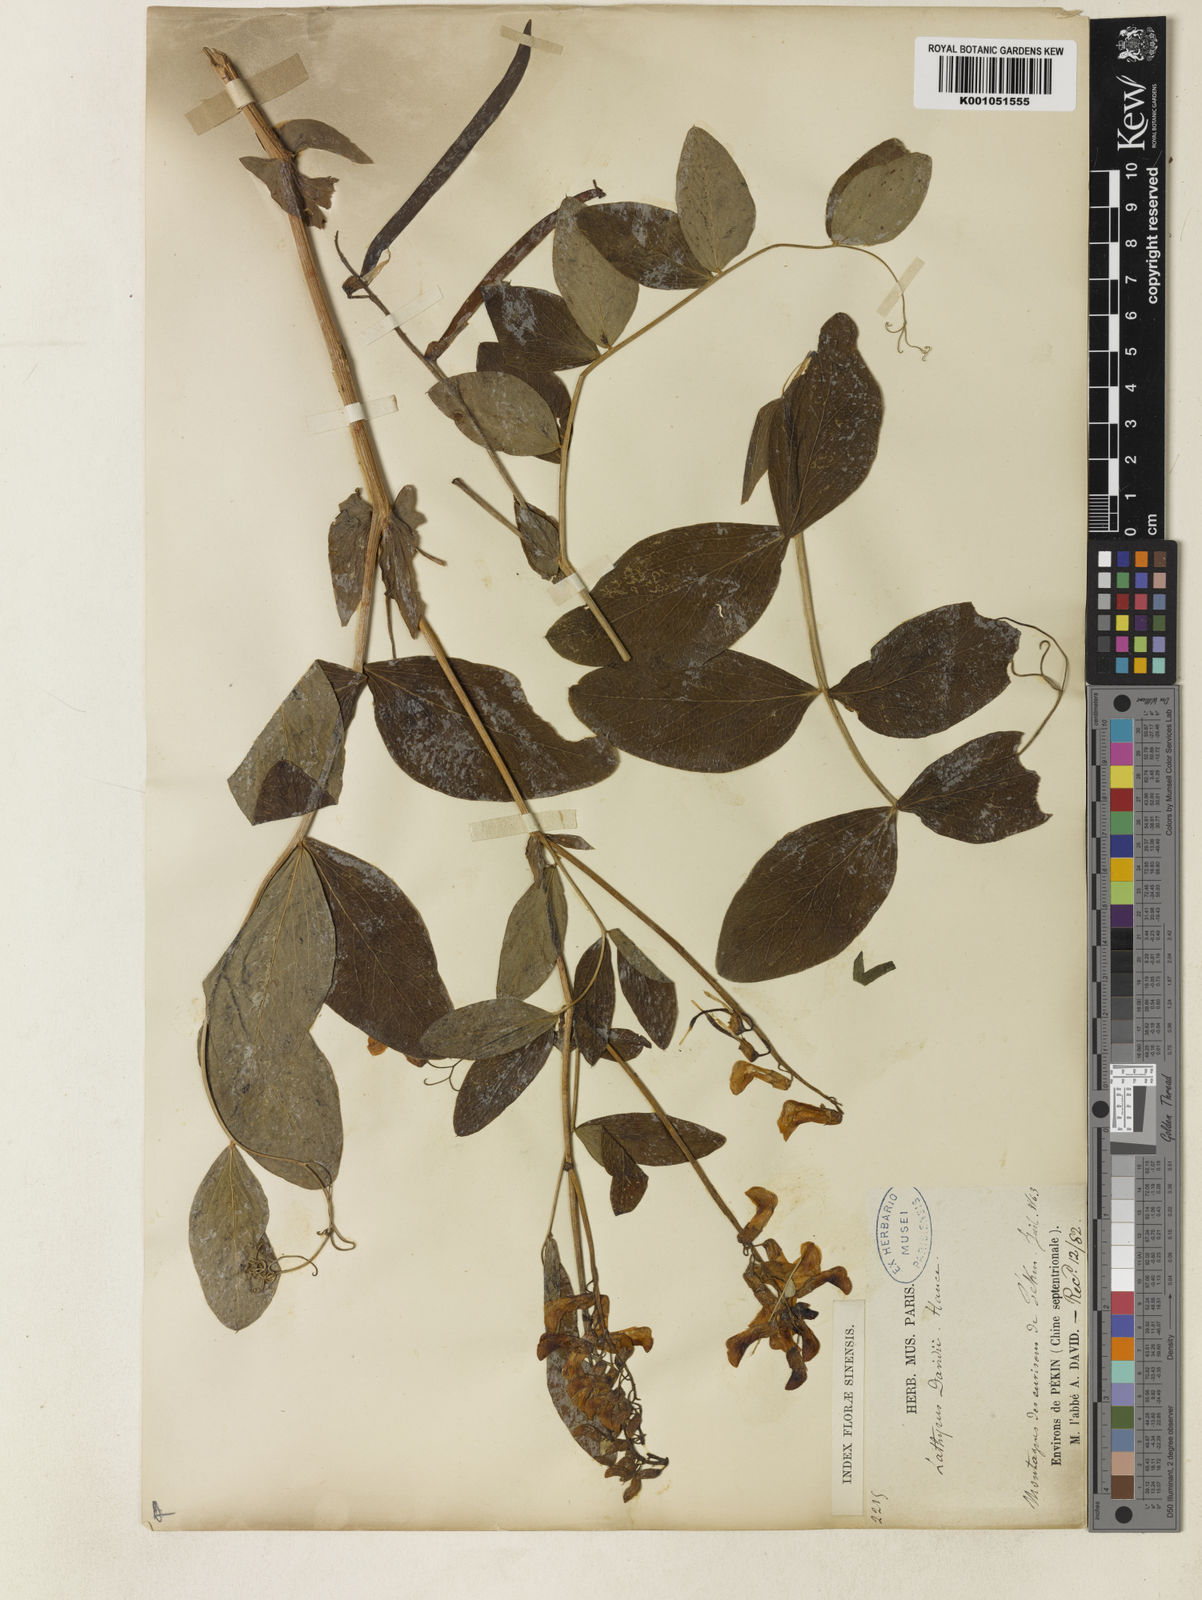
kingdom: Plantae
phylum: Tracheophyta
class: Magnoliopsida
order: Fabales
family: Fabaceae
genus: Lathyrus
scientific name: Lathyrus davidii
